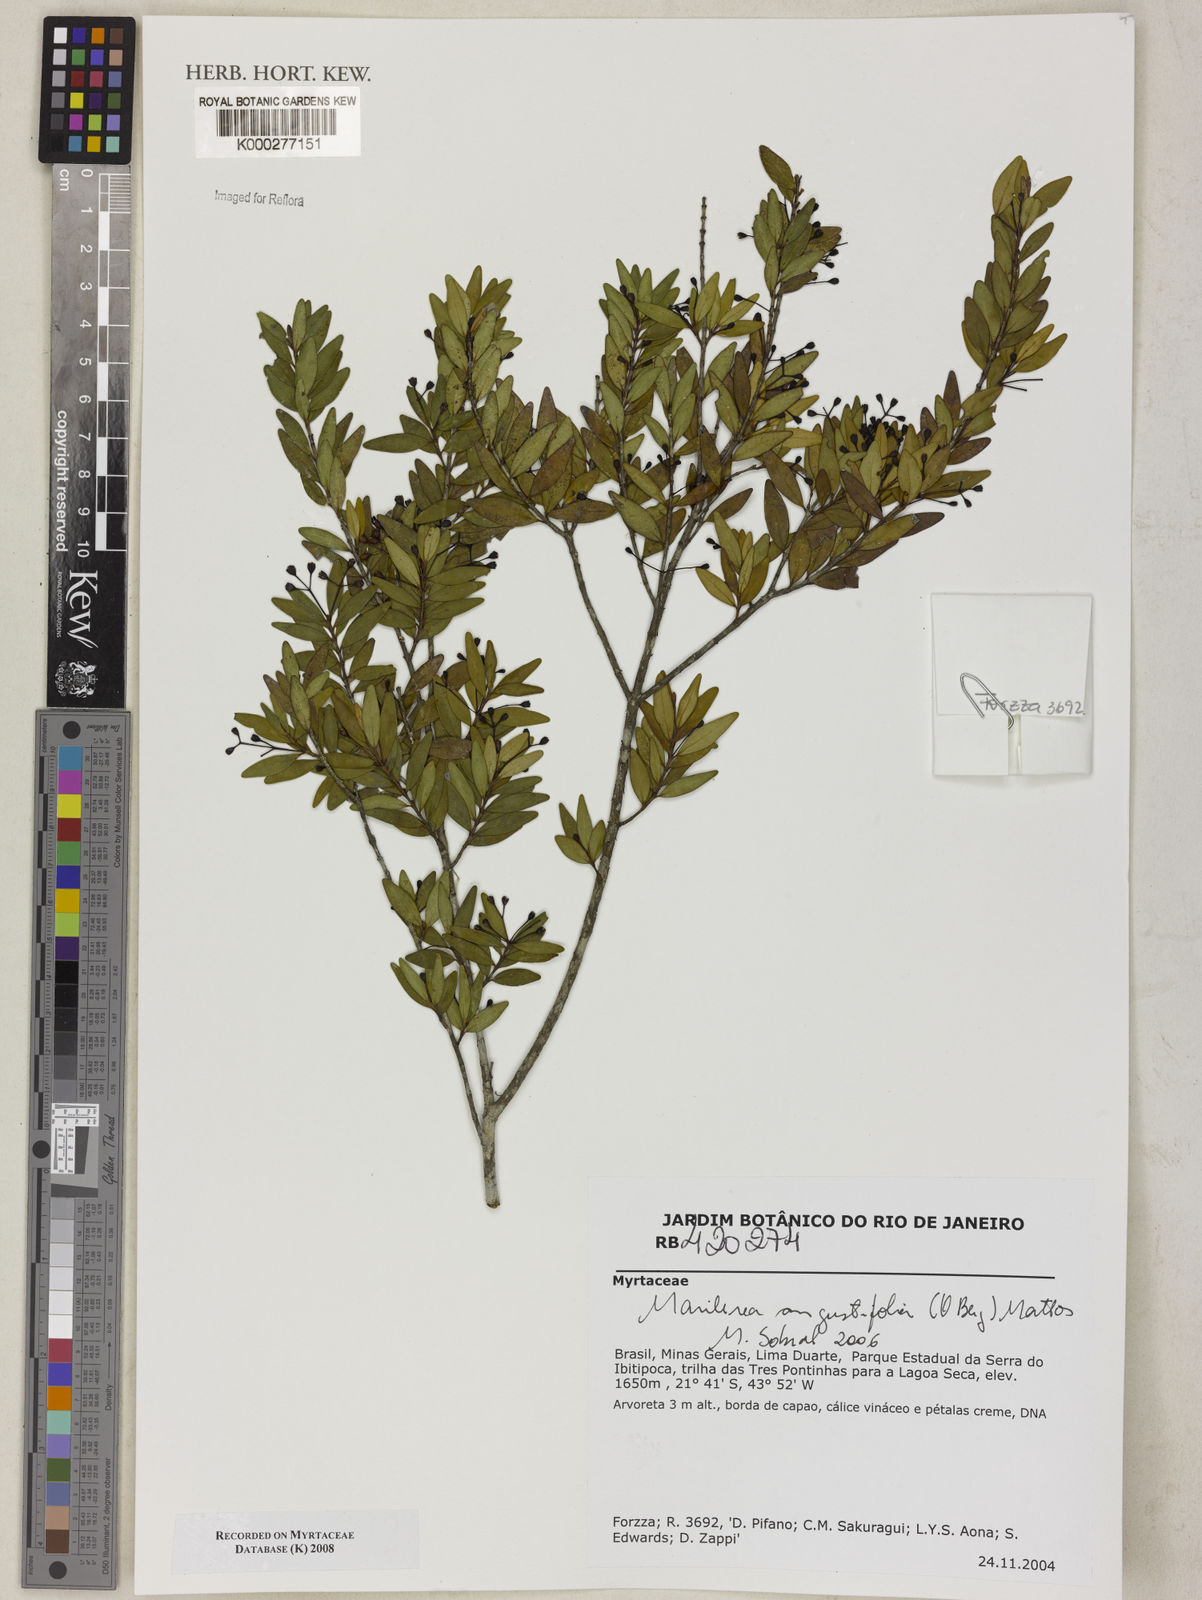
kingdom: Plantae
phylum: Tracheophyta
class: Magnoliopsida
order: Myrtales
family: Myrtaceae
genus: Myrcia
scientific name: Myrcia lenheirensis
